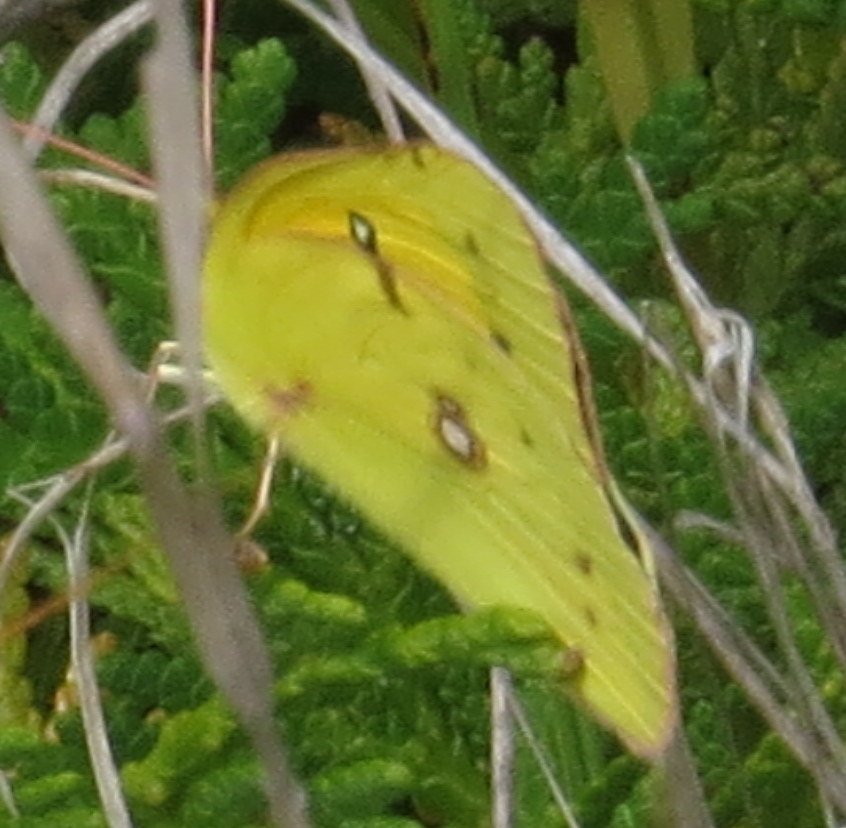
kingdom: Animalia
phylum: Arthropoda
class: Insecta
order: Lepidoptera
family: Pieridae
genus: Colias
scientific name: Colias eurytheme
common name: Orange Sulphur
